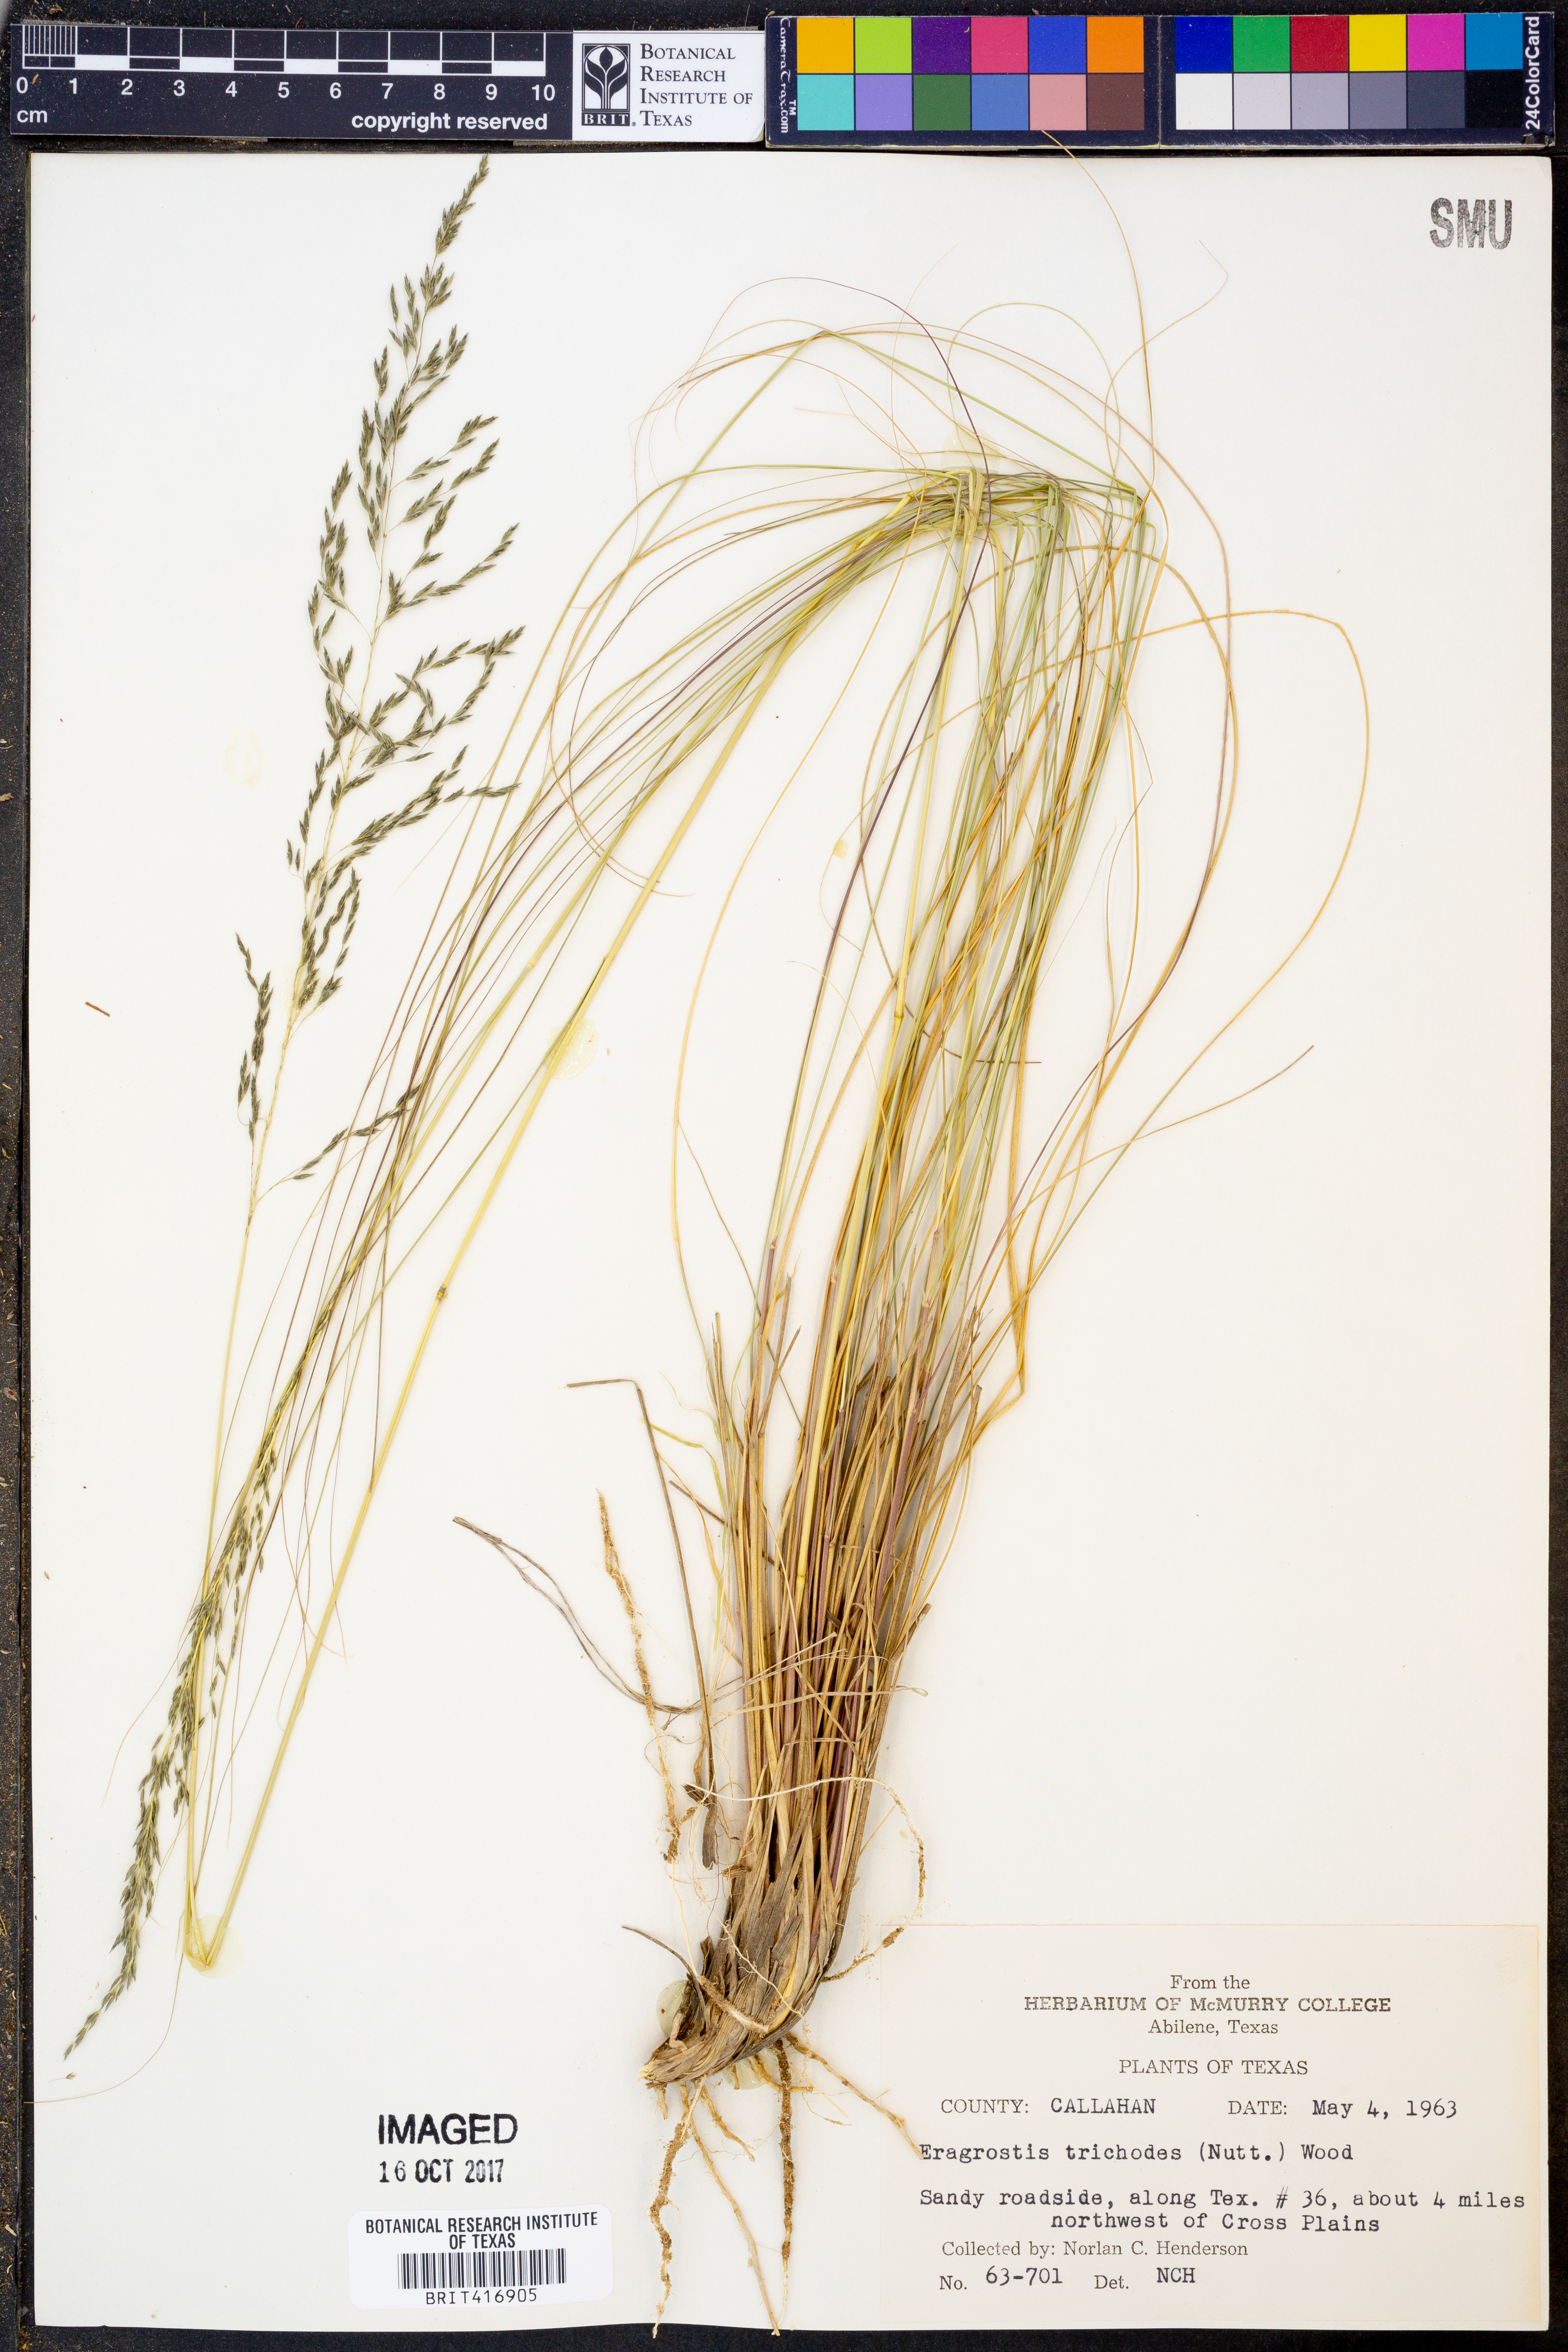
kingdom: Plantae
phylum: Tracheophyta
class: Liliopsida
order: Poales
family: Poaceae
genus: Eragrostis
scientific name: Eragrostis trichodes
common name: Sand love grass
